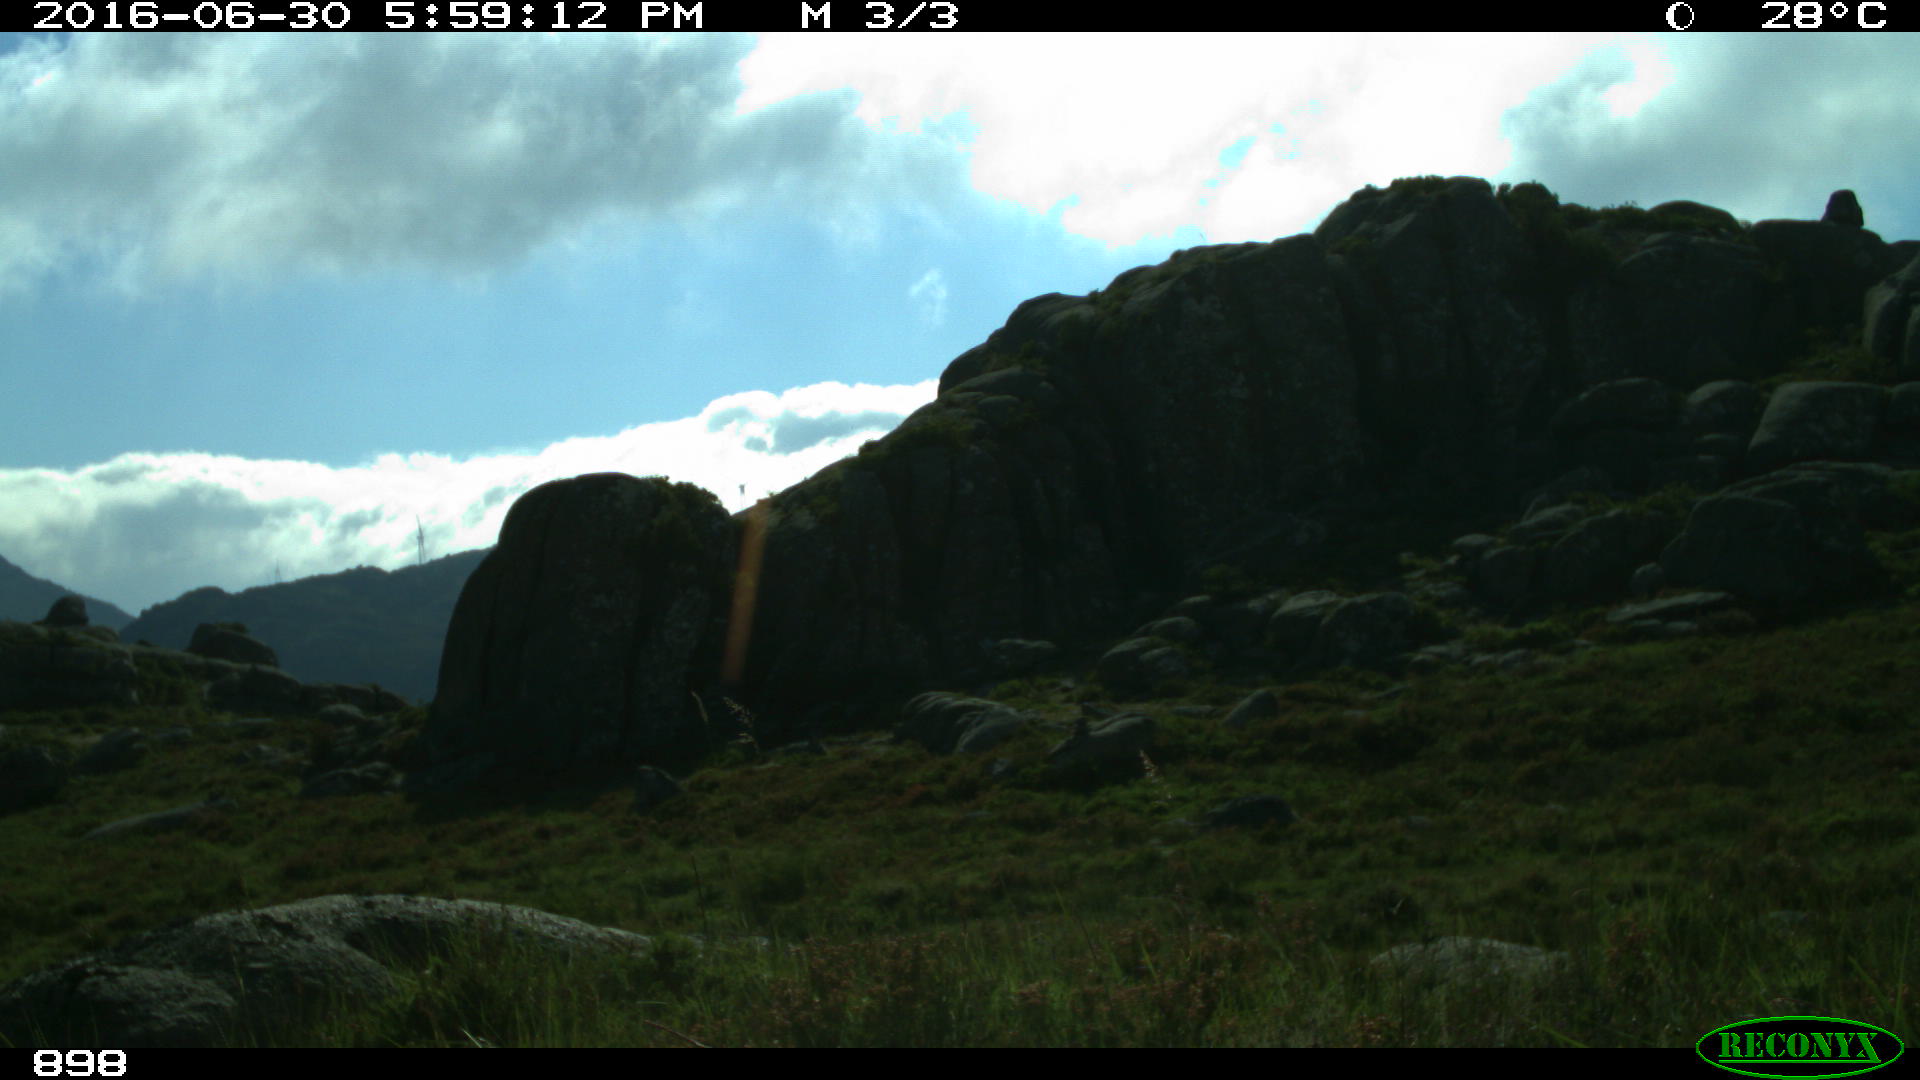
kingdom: Animalia
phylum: Chordata
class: Mammalia
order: Perissodactyla
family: Equidae
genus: Equus
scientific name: Equus caballus
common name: Horse
